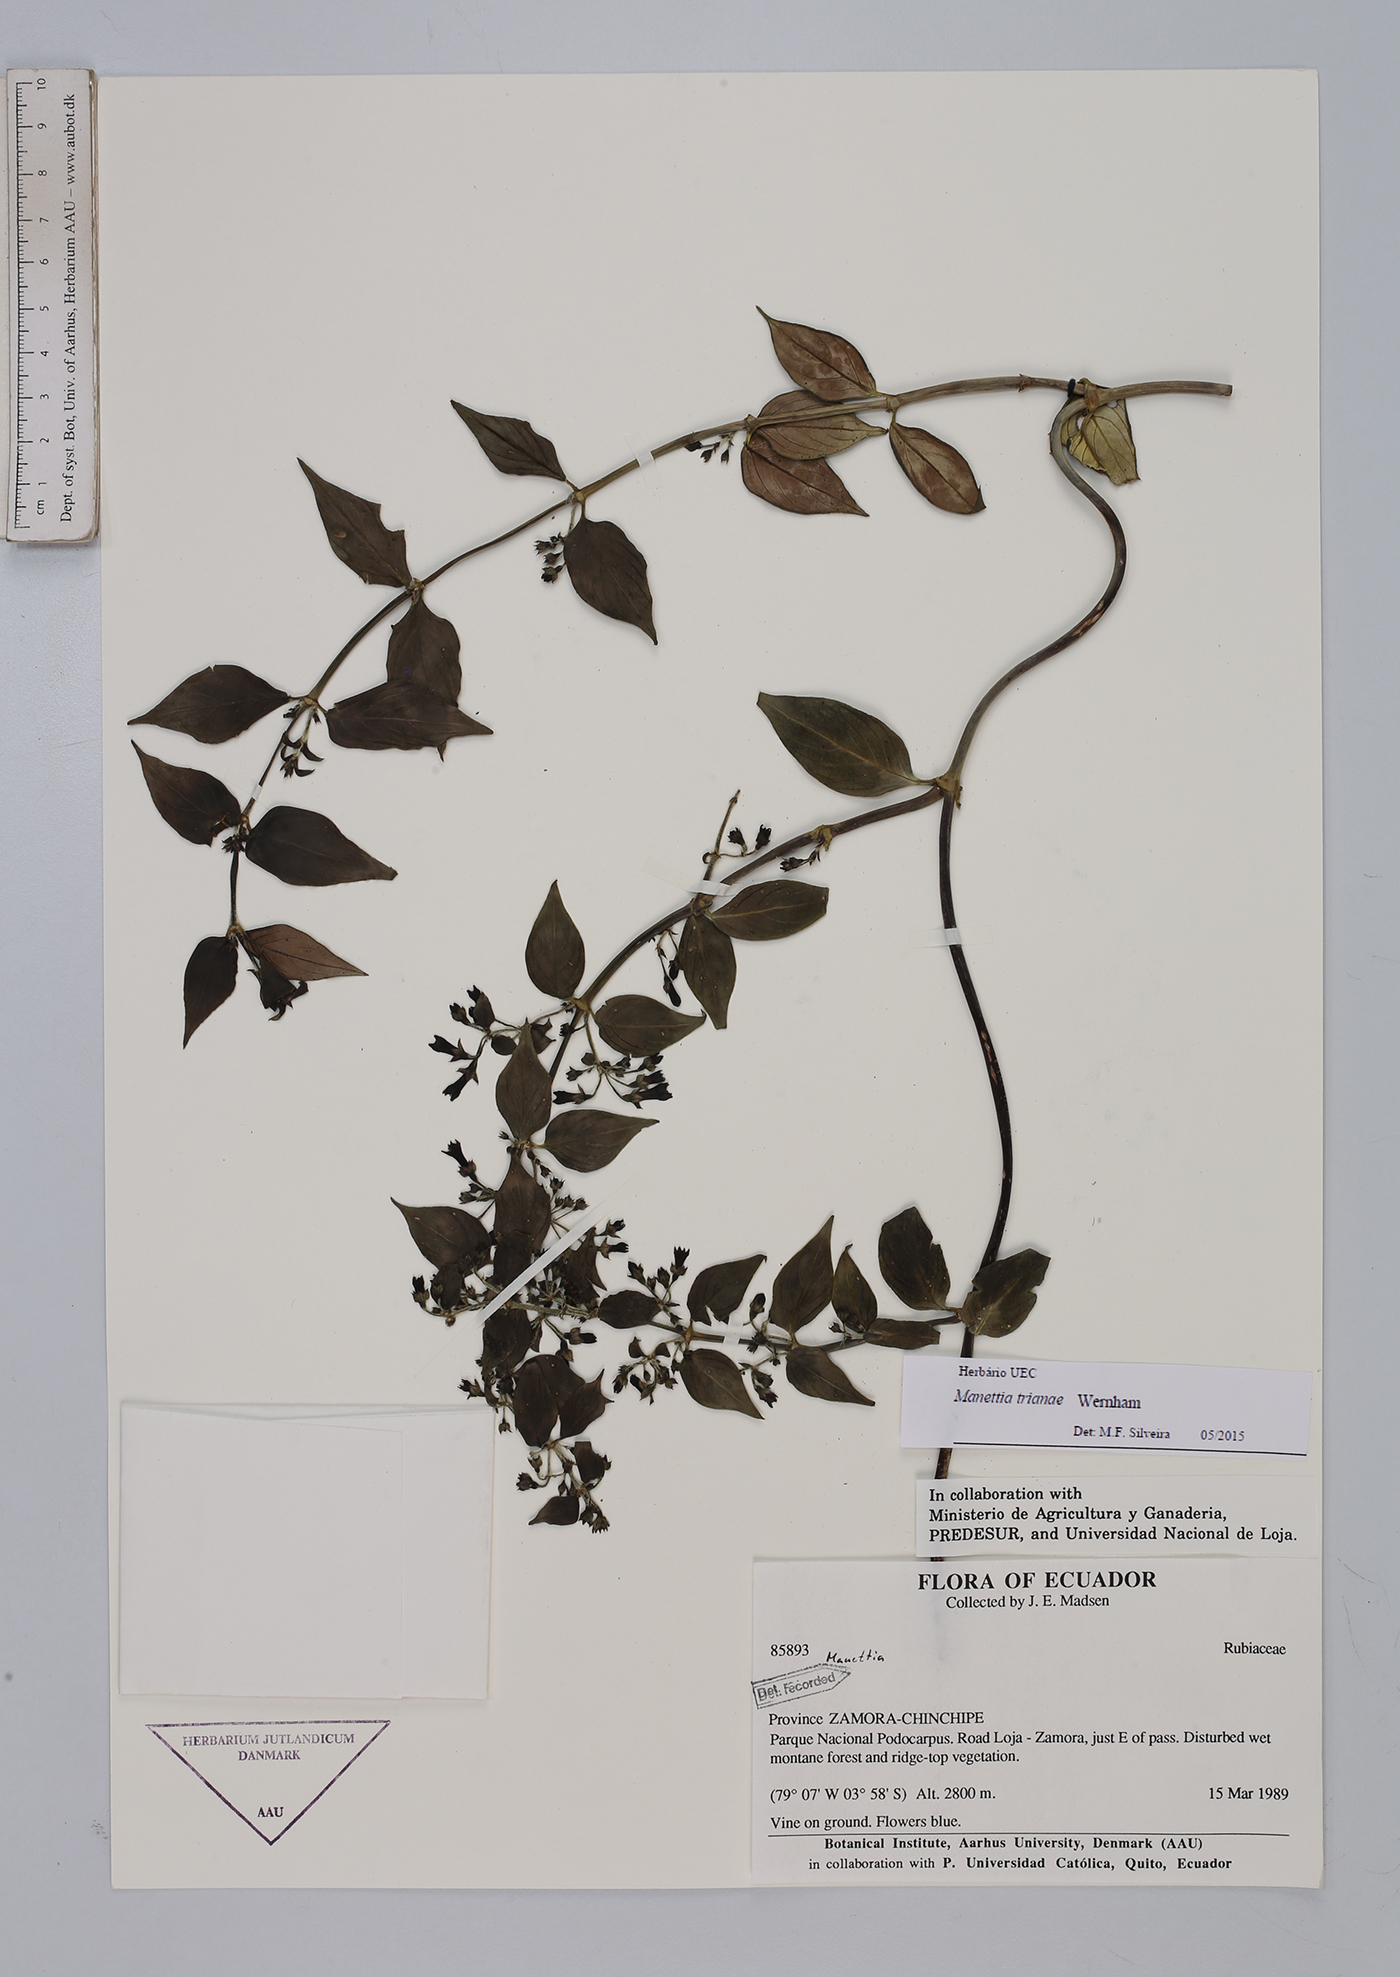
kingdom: Plantae
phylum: Tracheophyta
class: Magnoliopsida
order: Gentianales
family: Rubiaceae
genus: Manettia
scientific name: Manettia trianae
